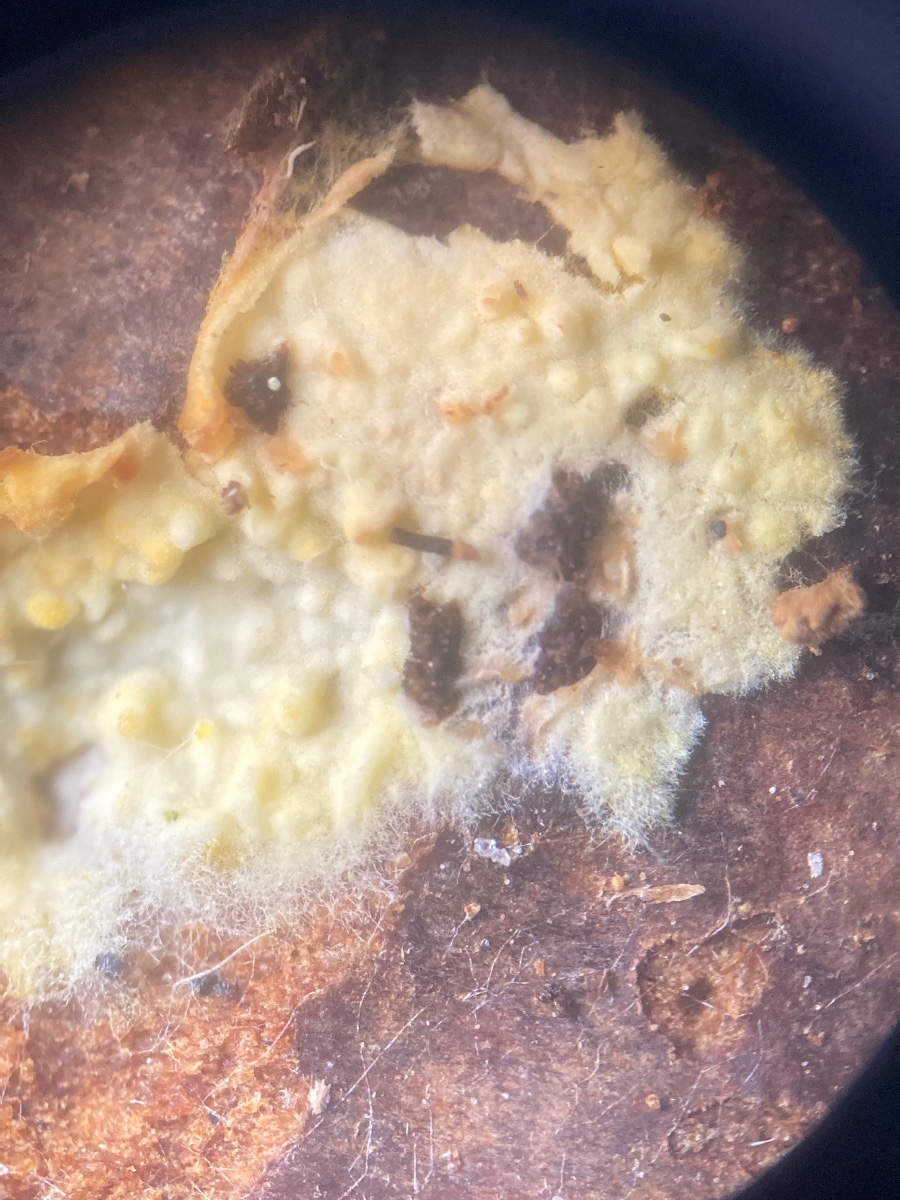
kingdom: Fungi
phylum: Basidiomycota
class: Agaricomycetes
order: Agaricales
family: Stephanosporaceae
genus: Lindtneria
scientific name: Lindtneria leucobryophila
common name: bleg citrushinde
